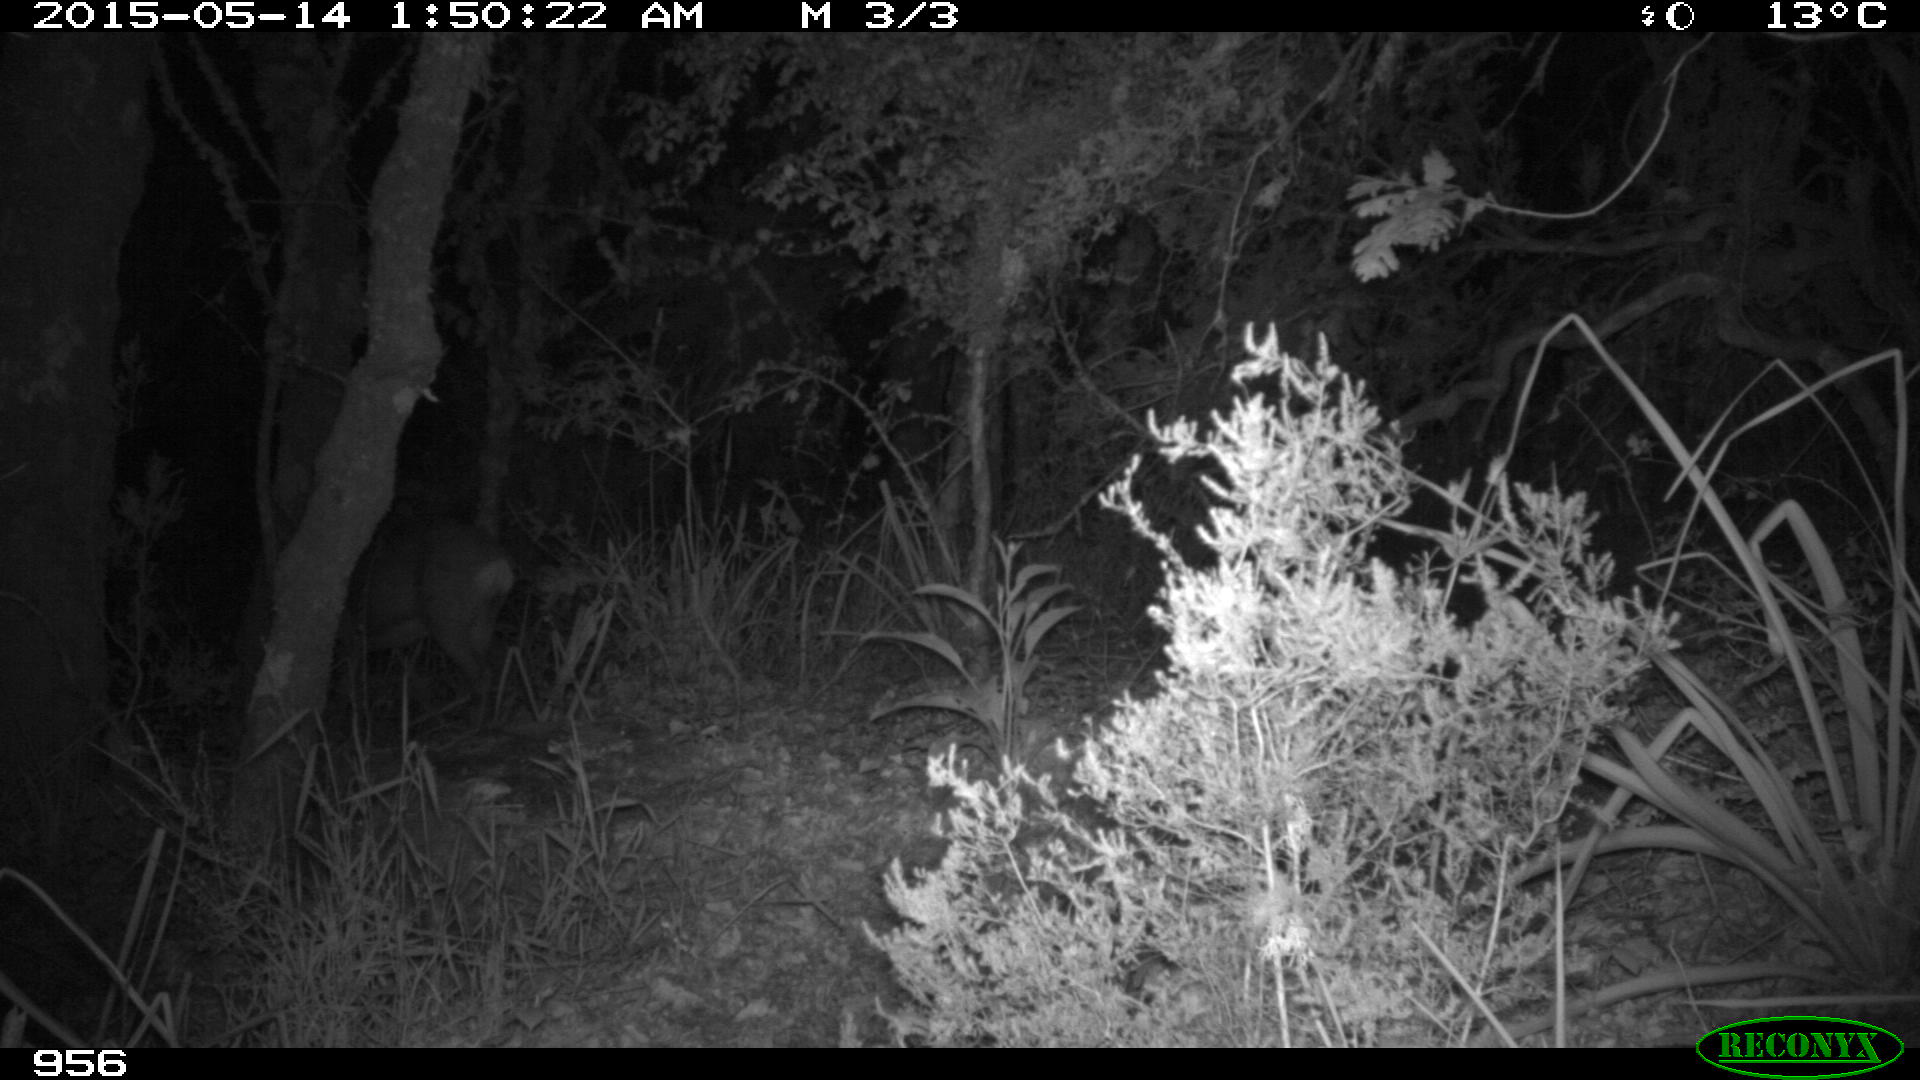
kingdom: Animalia
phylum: Chordata
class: Mammalia
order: Artiodactyla
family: Cervidae
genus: Capreolus
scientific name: Capreolus capreolus
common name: Western roe deer
